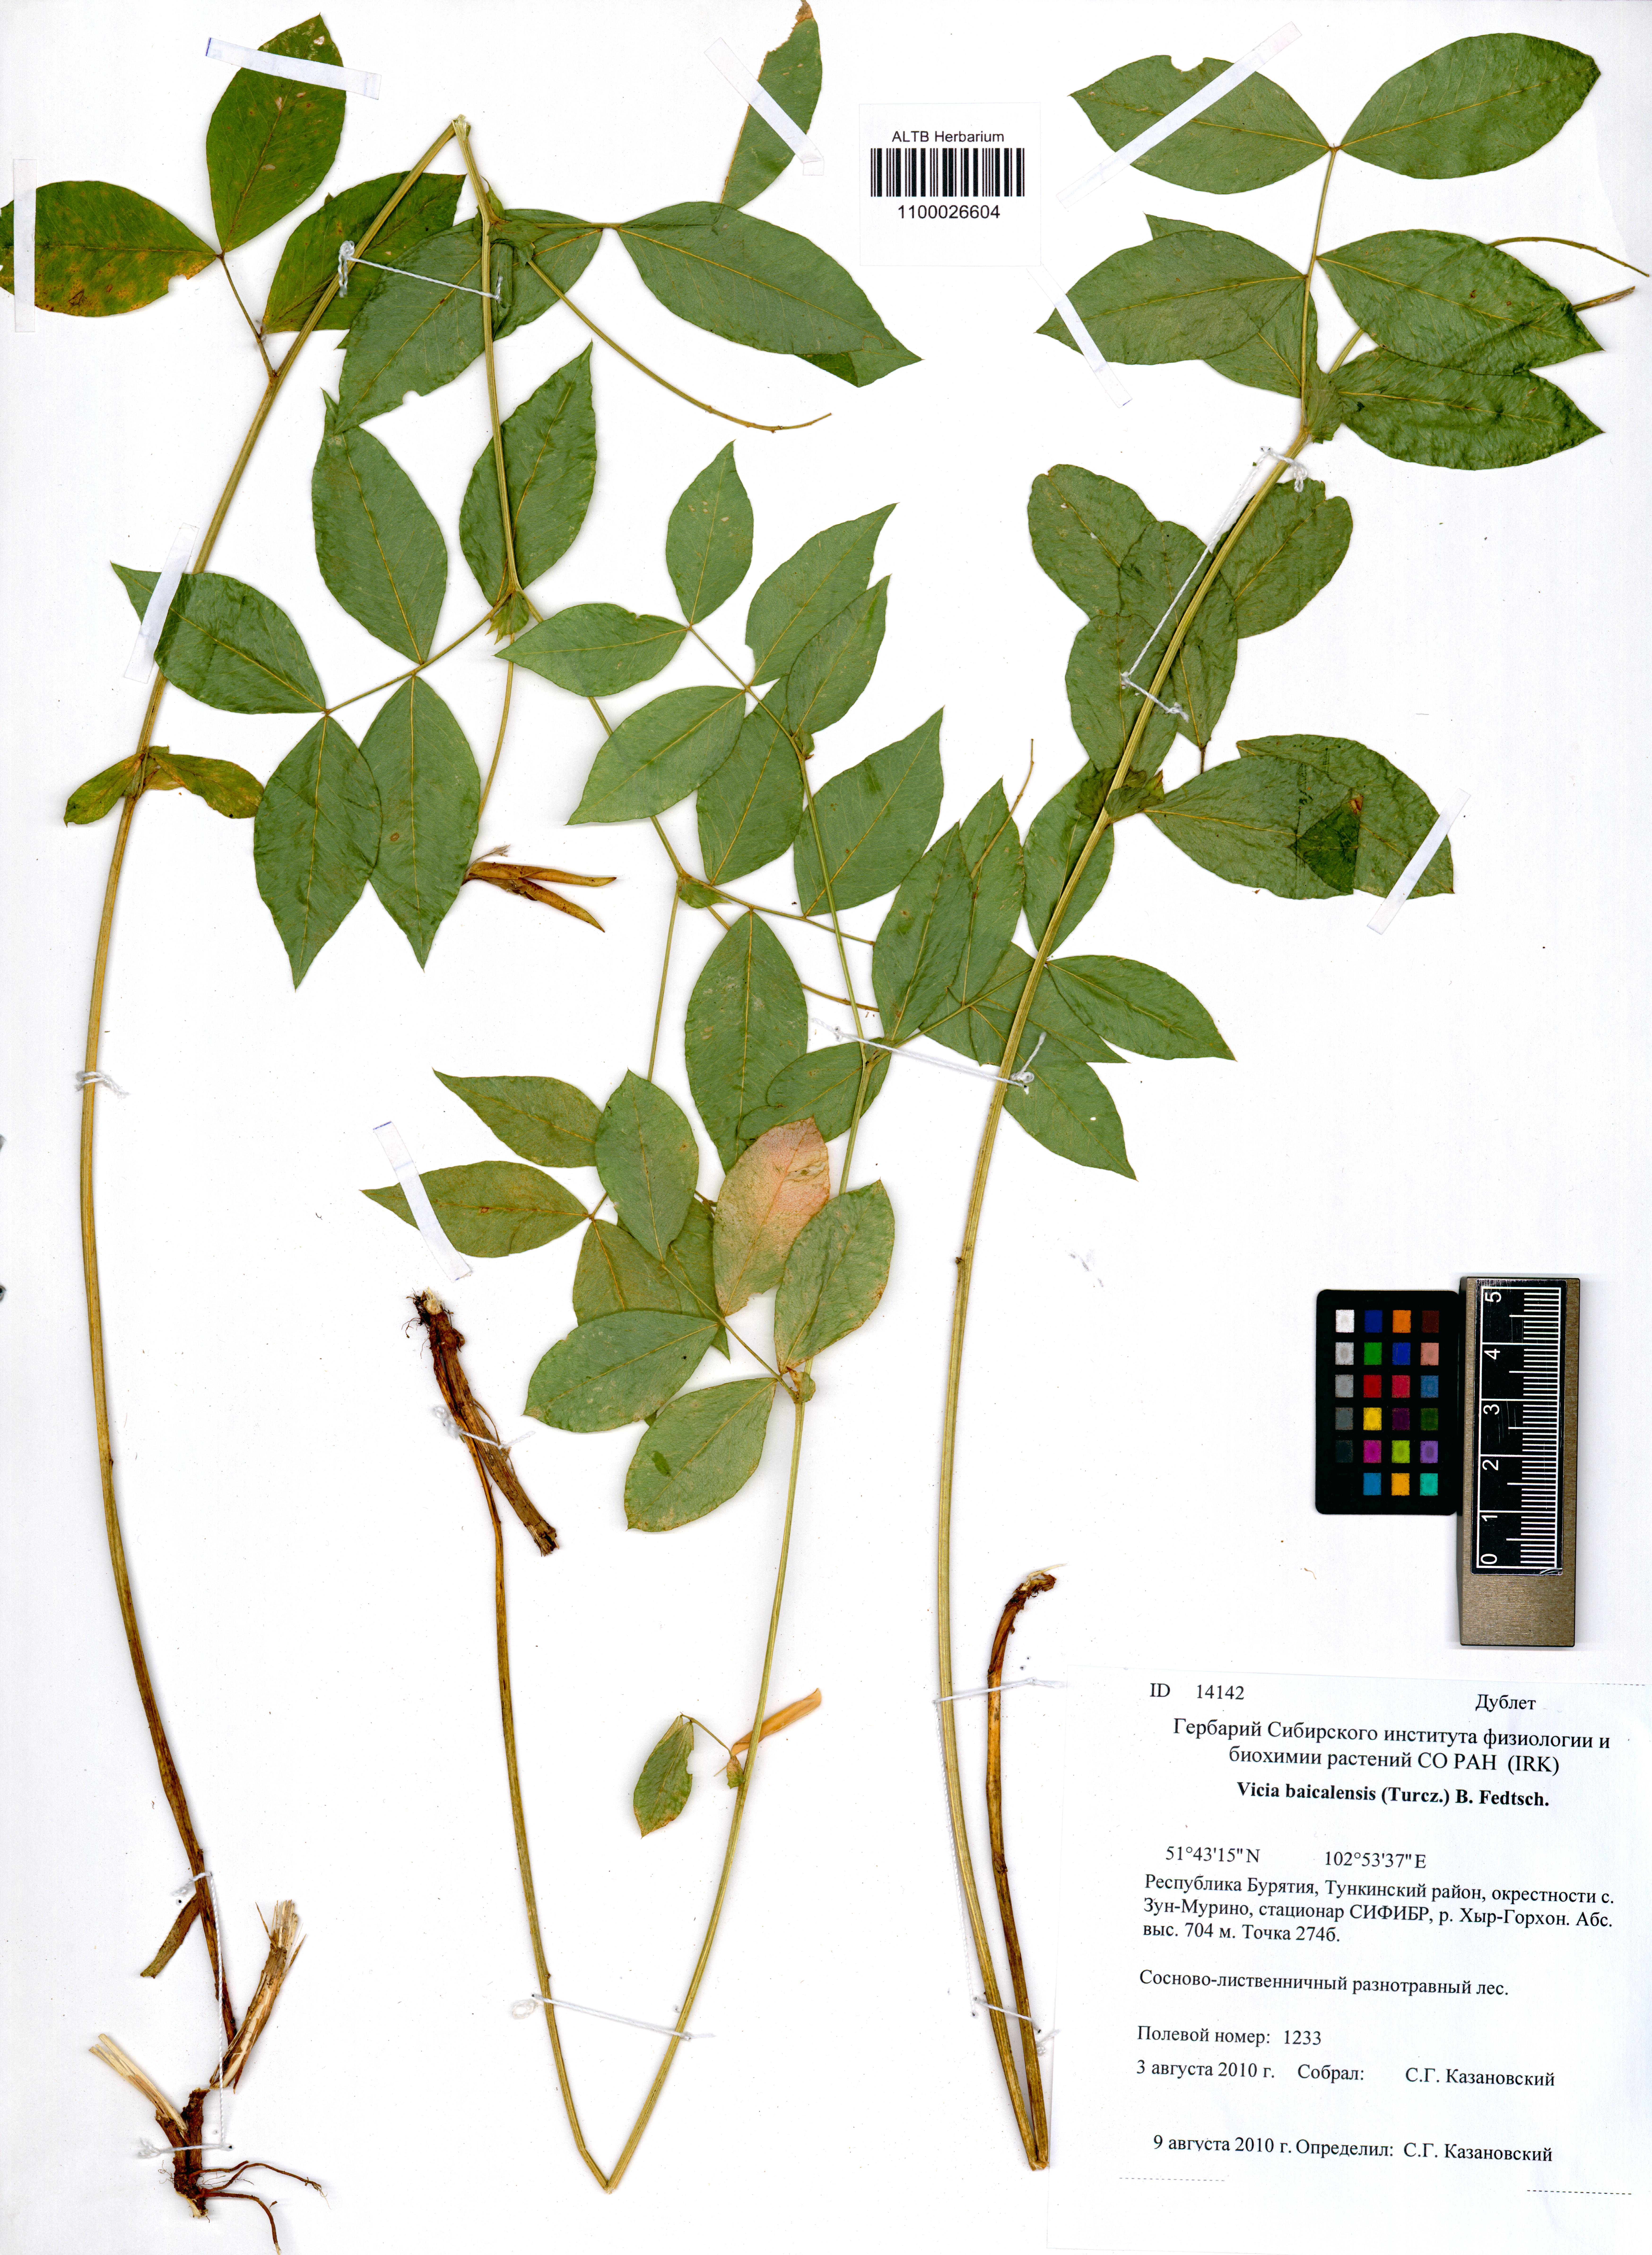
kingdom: Plantae
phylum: Tracheophyta
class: Magnoliopsida
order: Fabales
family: Fabaceae
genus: Vicia
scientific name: Vicia ramuliflora
